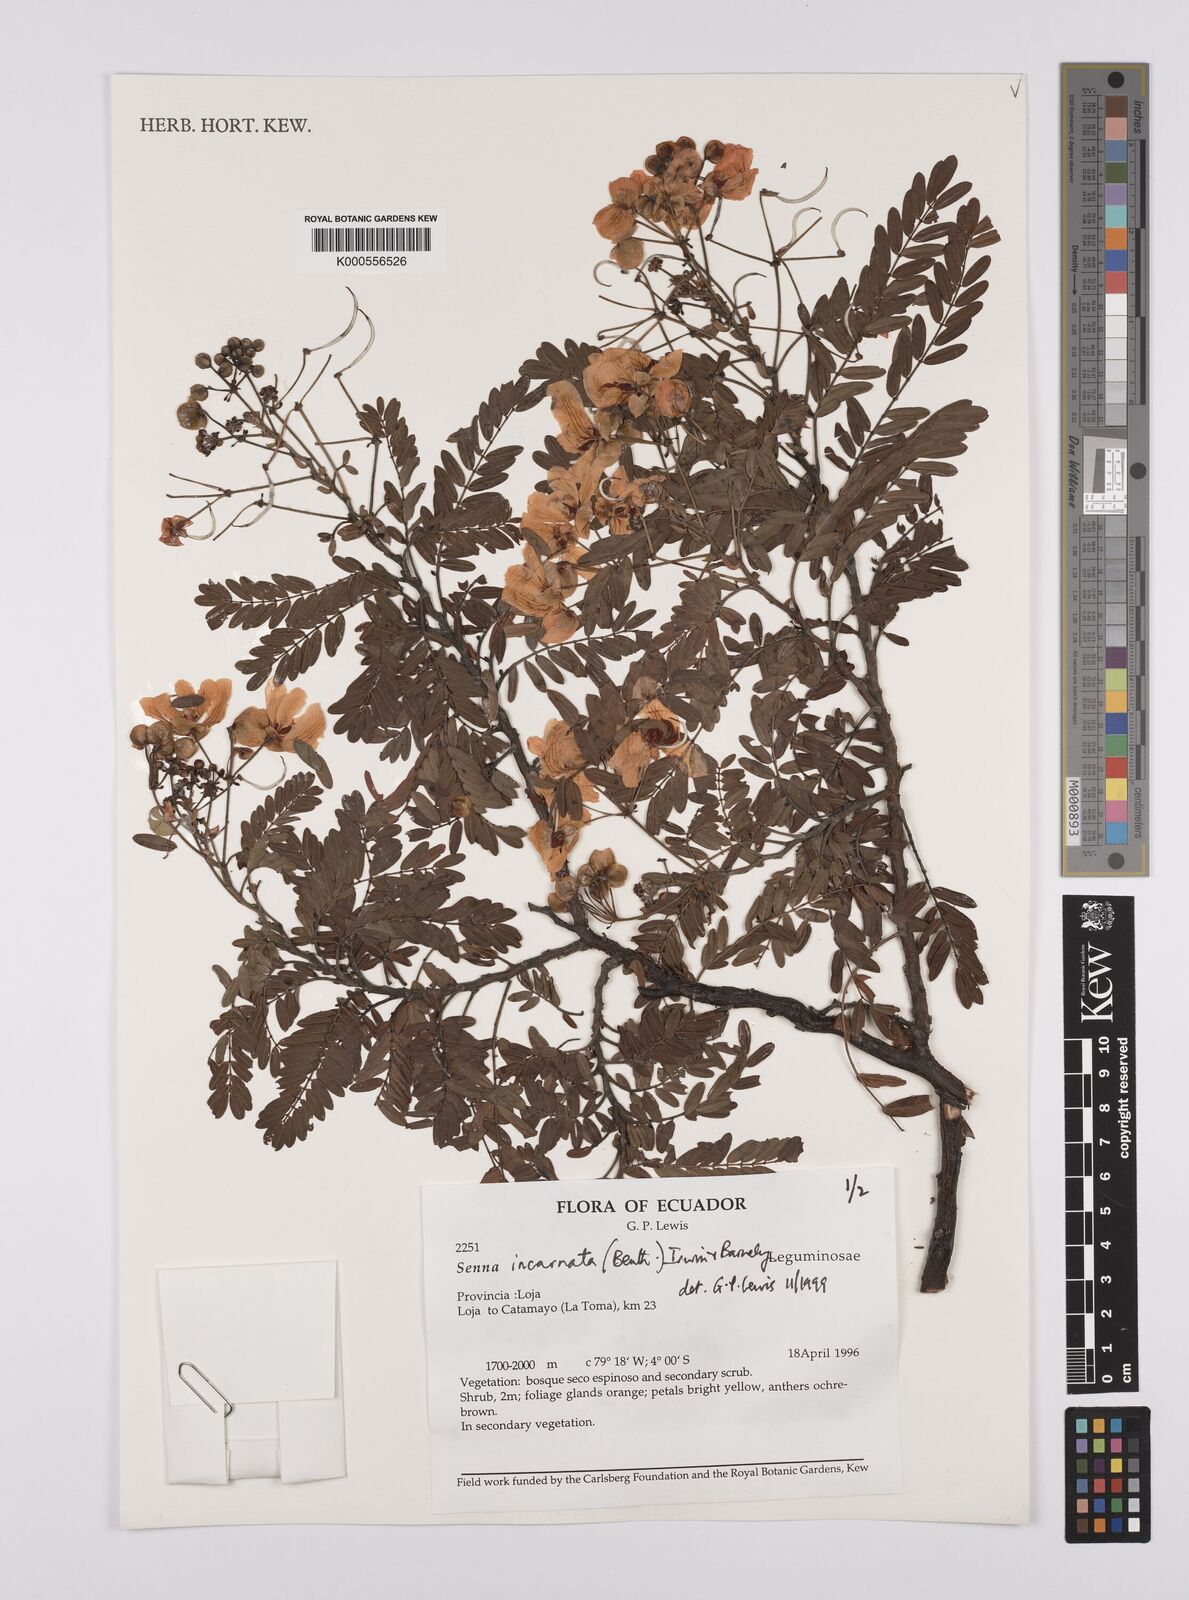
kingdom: Plantae
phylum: Tracheophyta
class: Magnoliopsida
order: Fabales
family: Fabaceae
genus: Senna
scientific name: Senna incarnata
